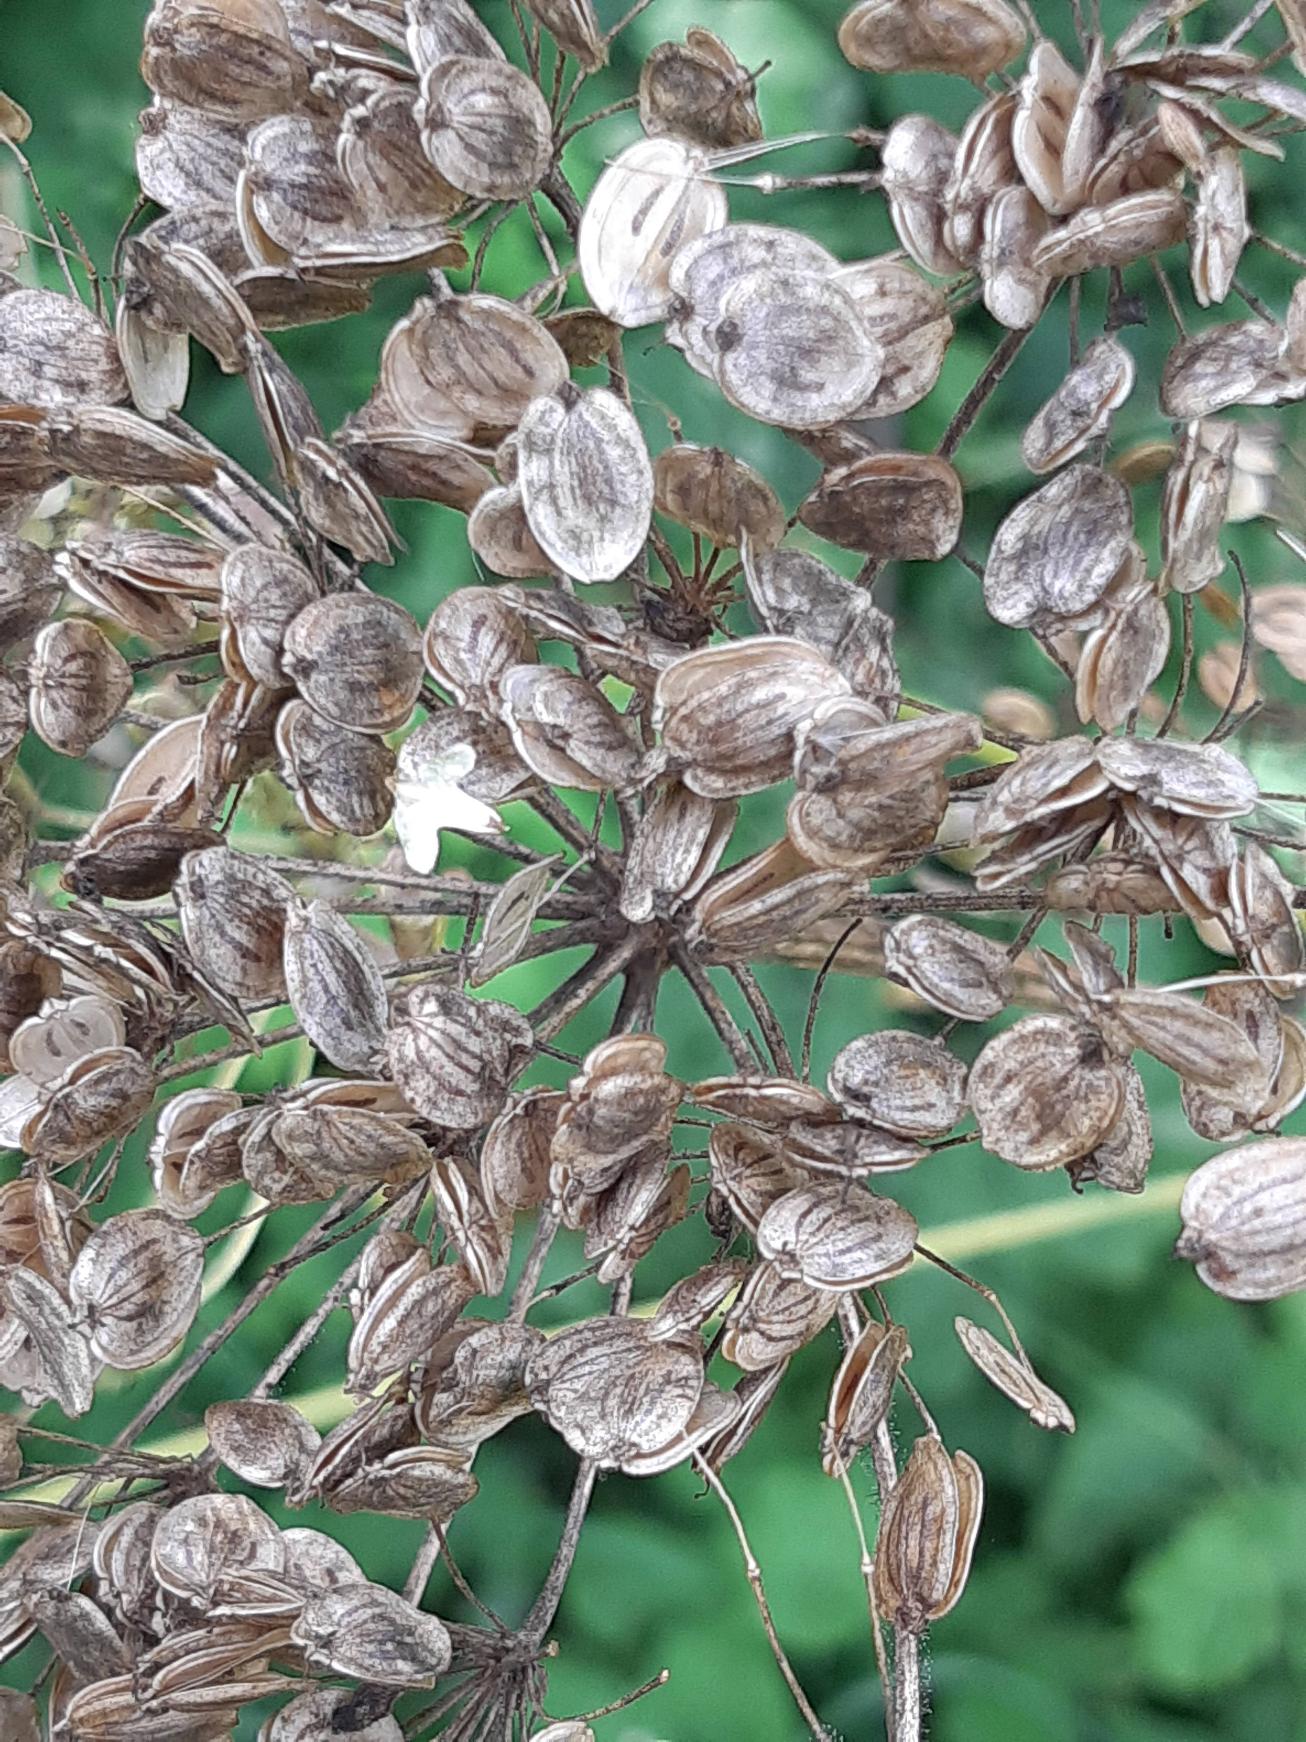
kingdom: Plantae
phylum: Tracheophyta
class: Magnoliopsida
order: Apiales
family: Apiaceae
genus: Heracleum
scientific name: Heracleum sphondylium
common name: Almindelig bjørneklo
